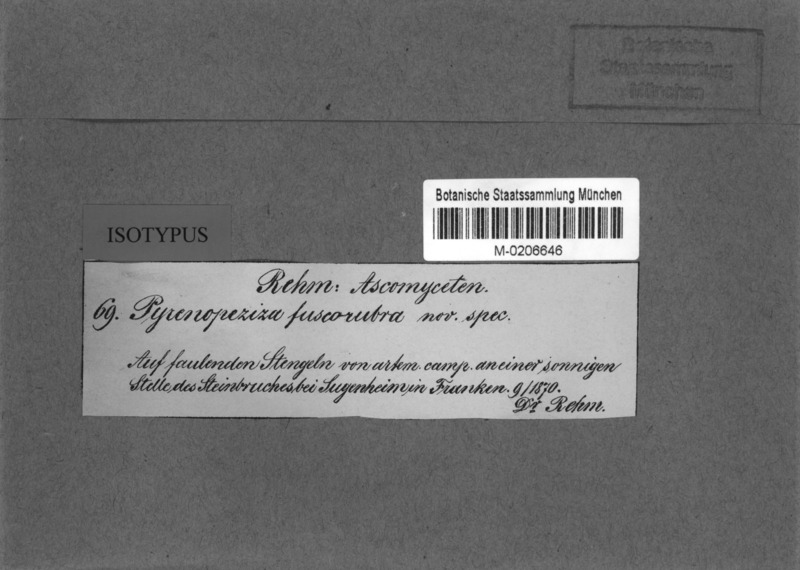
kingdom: Fungi
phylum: Ascomycota
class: Leotiomycetes
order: Helotiales
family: Ploettnerulaceae
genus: Pyrenopeziza
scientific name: Pyrenopeziza absinthii
